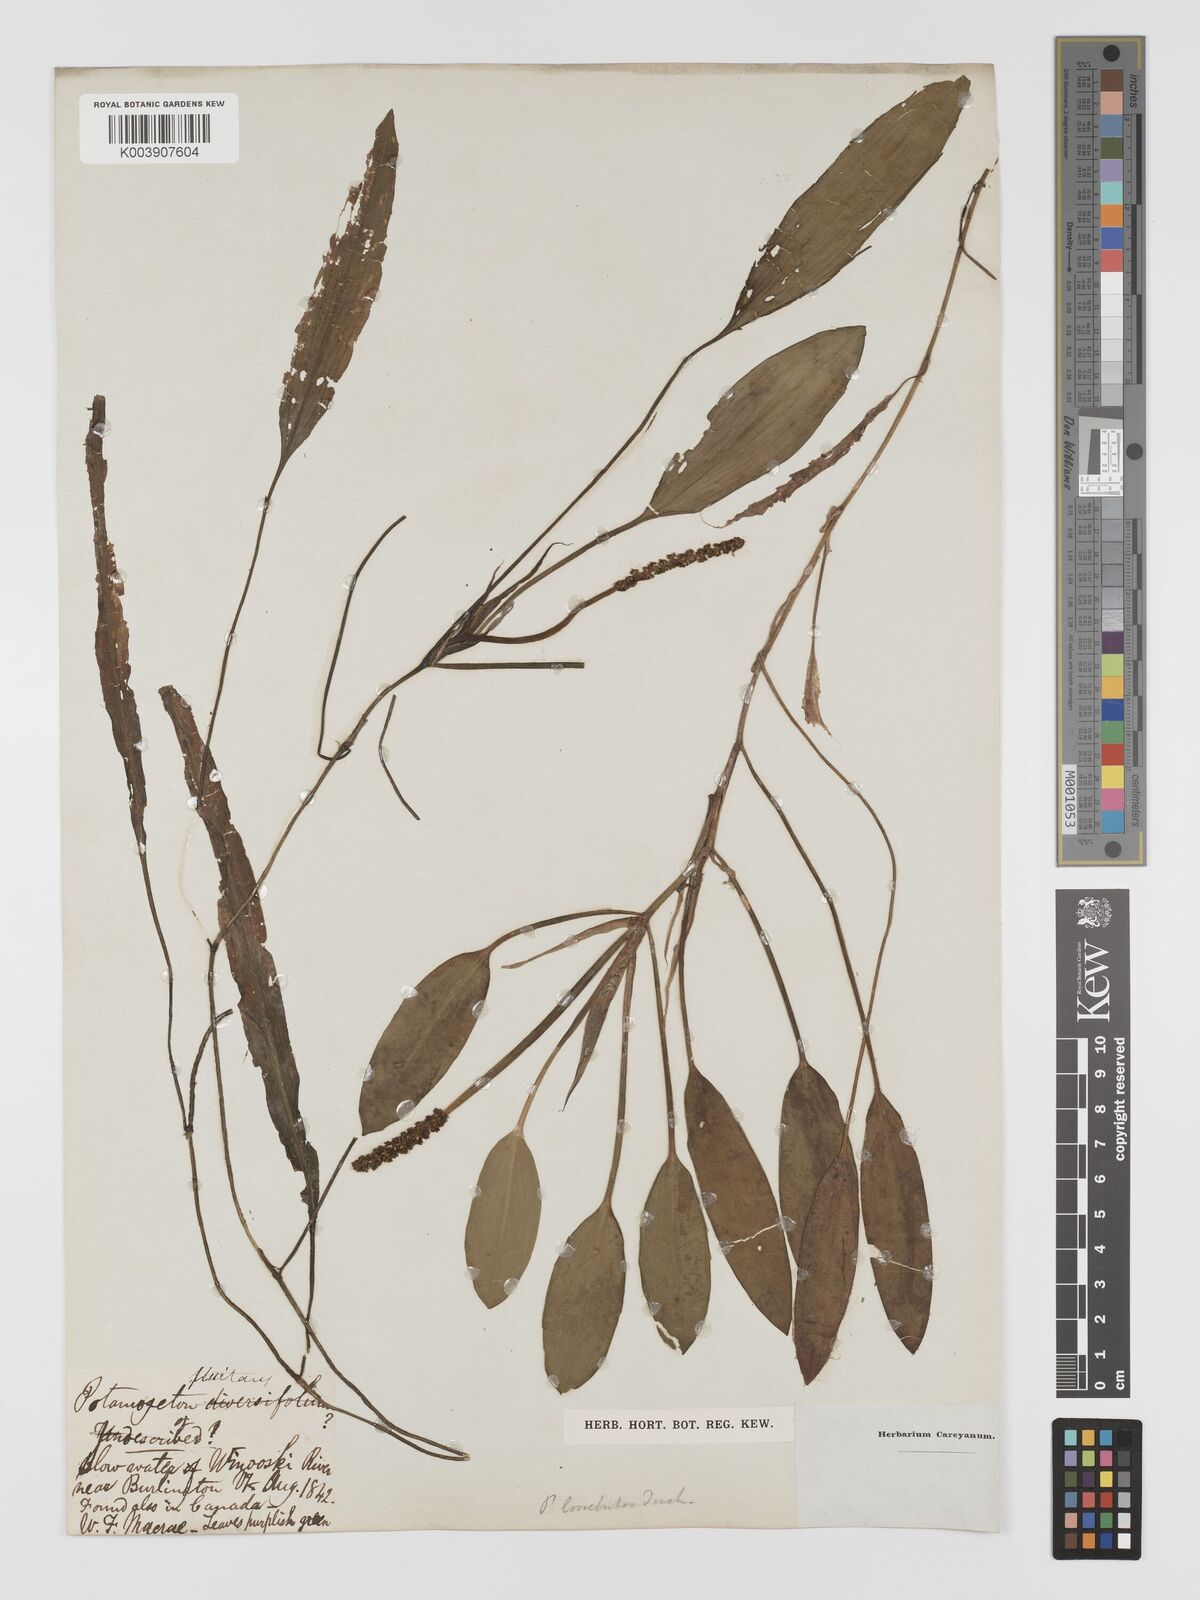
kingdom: Plantae
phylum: Tracheophyta
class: Liliopsida
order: Alismatales
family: Potamogetonaceae
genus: Potamogeton
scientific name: Potamogeton nodosus
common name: Loddon pondweed
